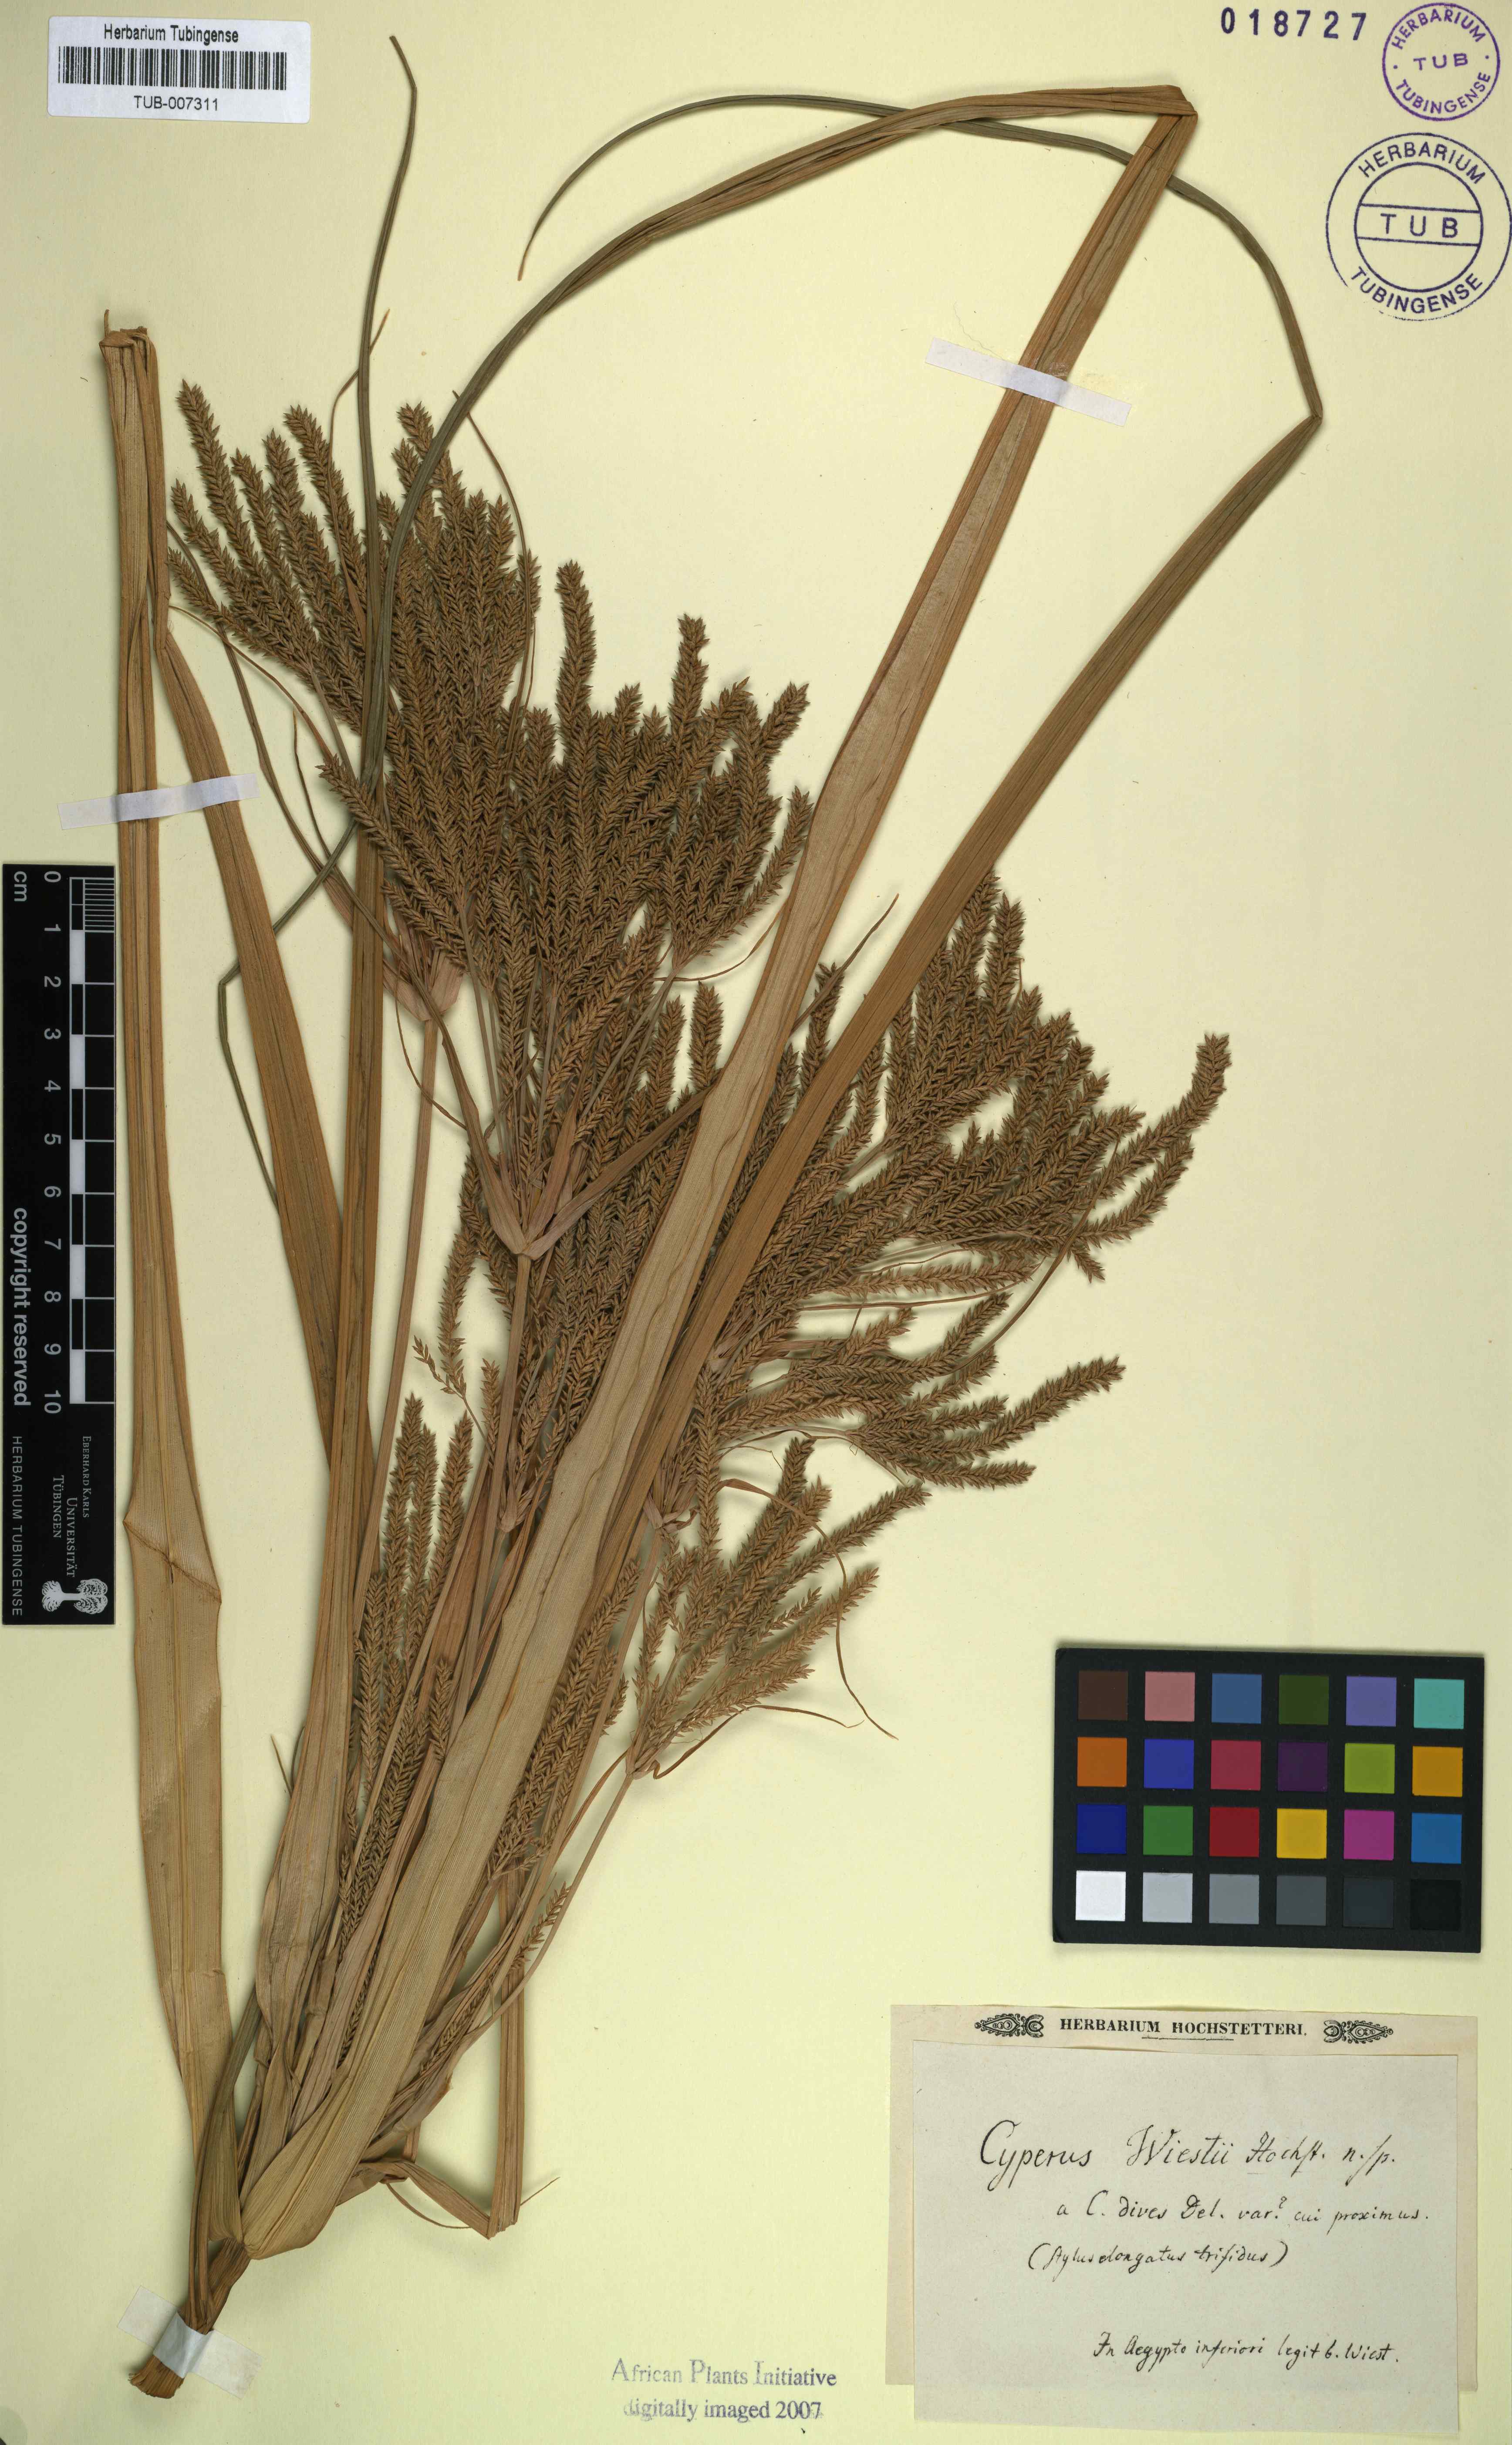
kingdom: Plantae
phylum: Tracheophyta
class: Liliopsida
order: Poales
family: Cyperaceae
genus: Cyperus
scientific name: Cyperus digitatus
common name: Finger flatsedge
